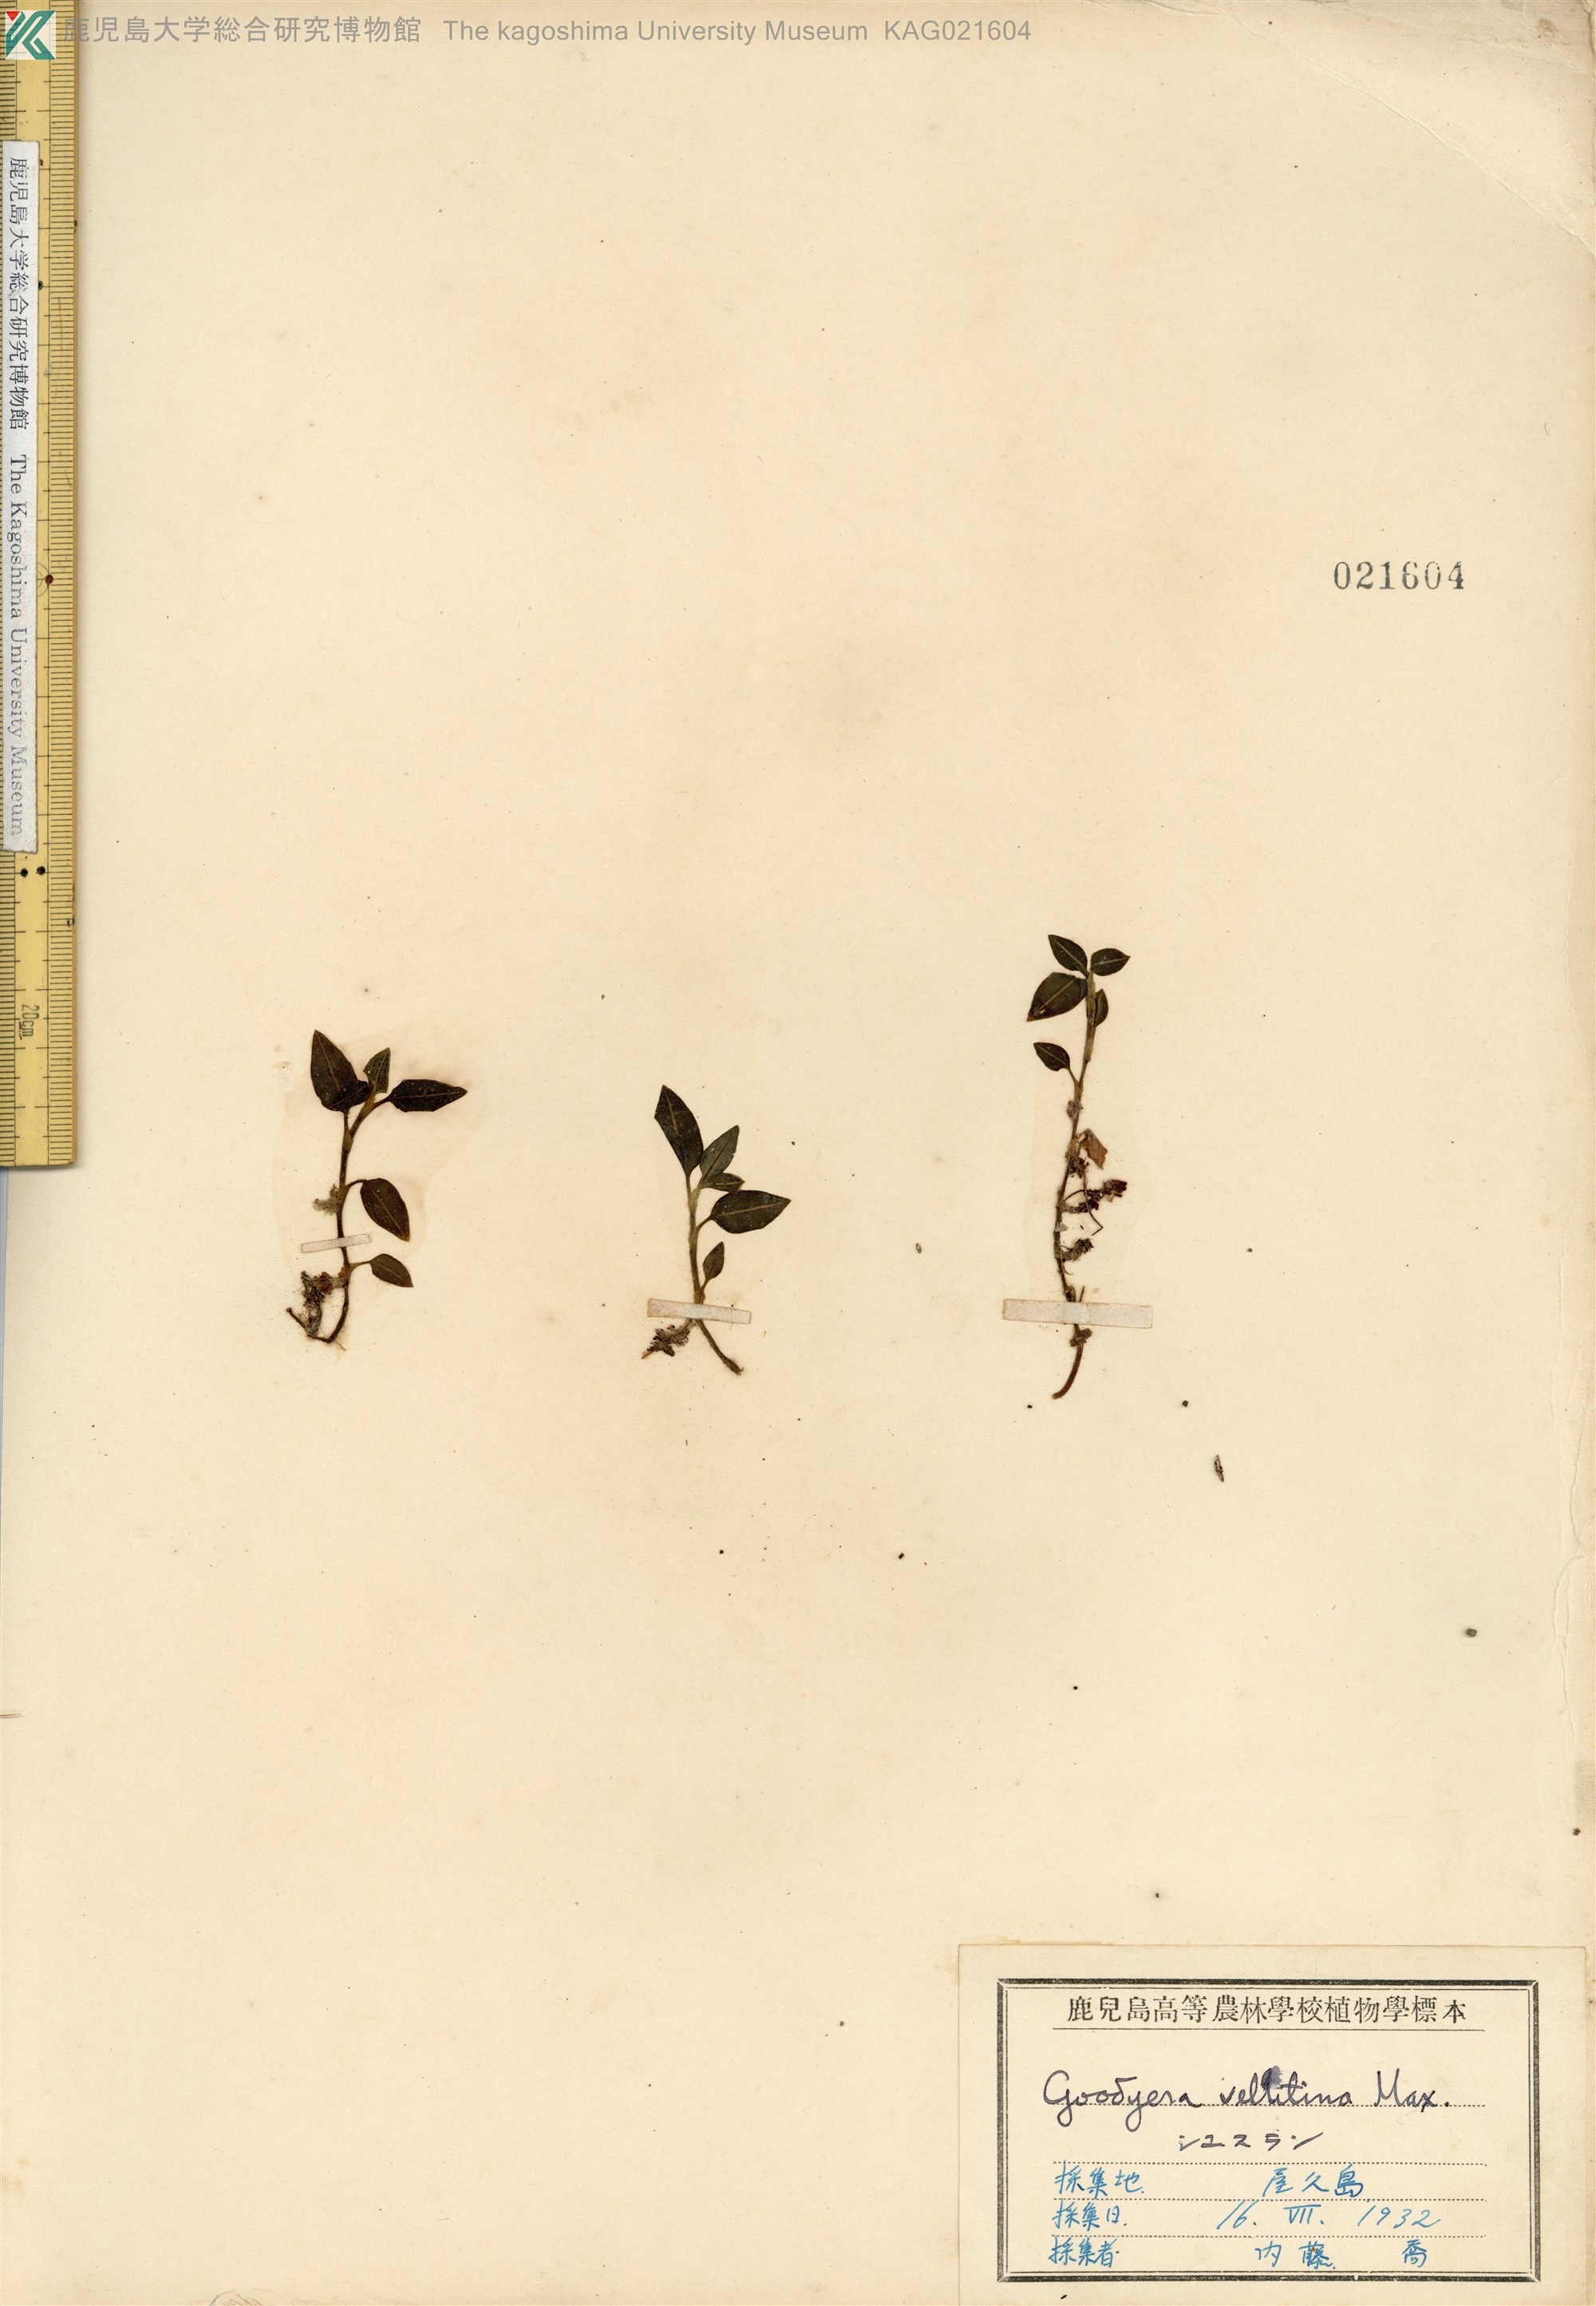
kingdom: Plantae
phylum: Tracheophyta
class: Liliopsida
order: Asparagales
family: Orchidaceae
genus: Goodyera
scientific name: Goodyera velutina
